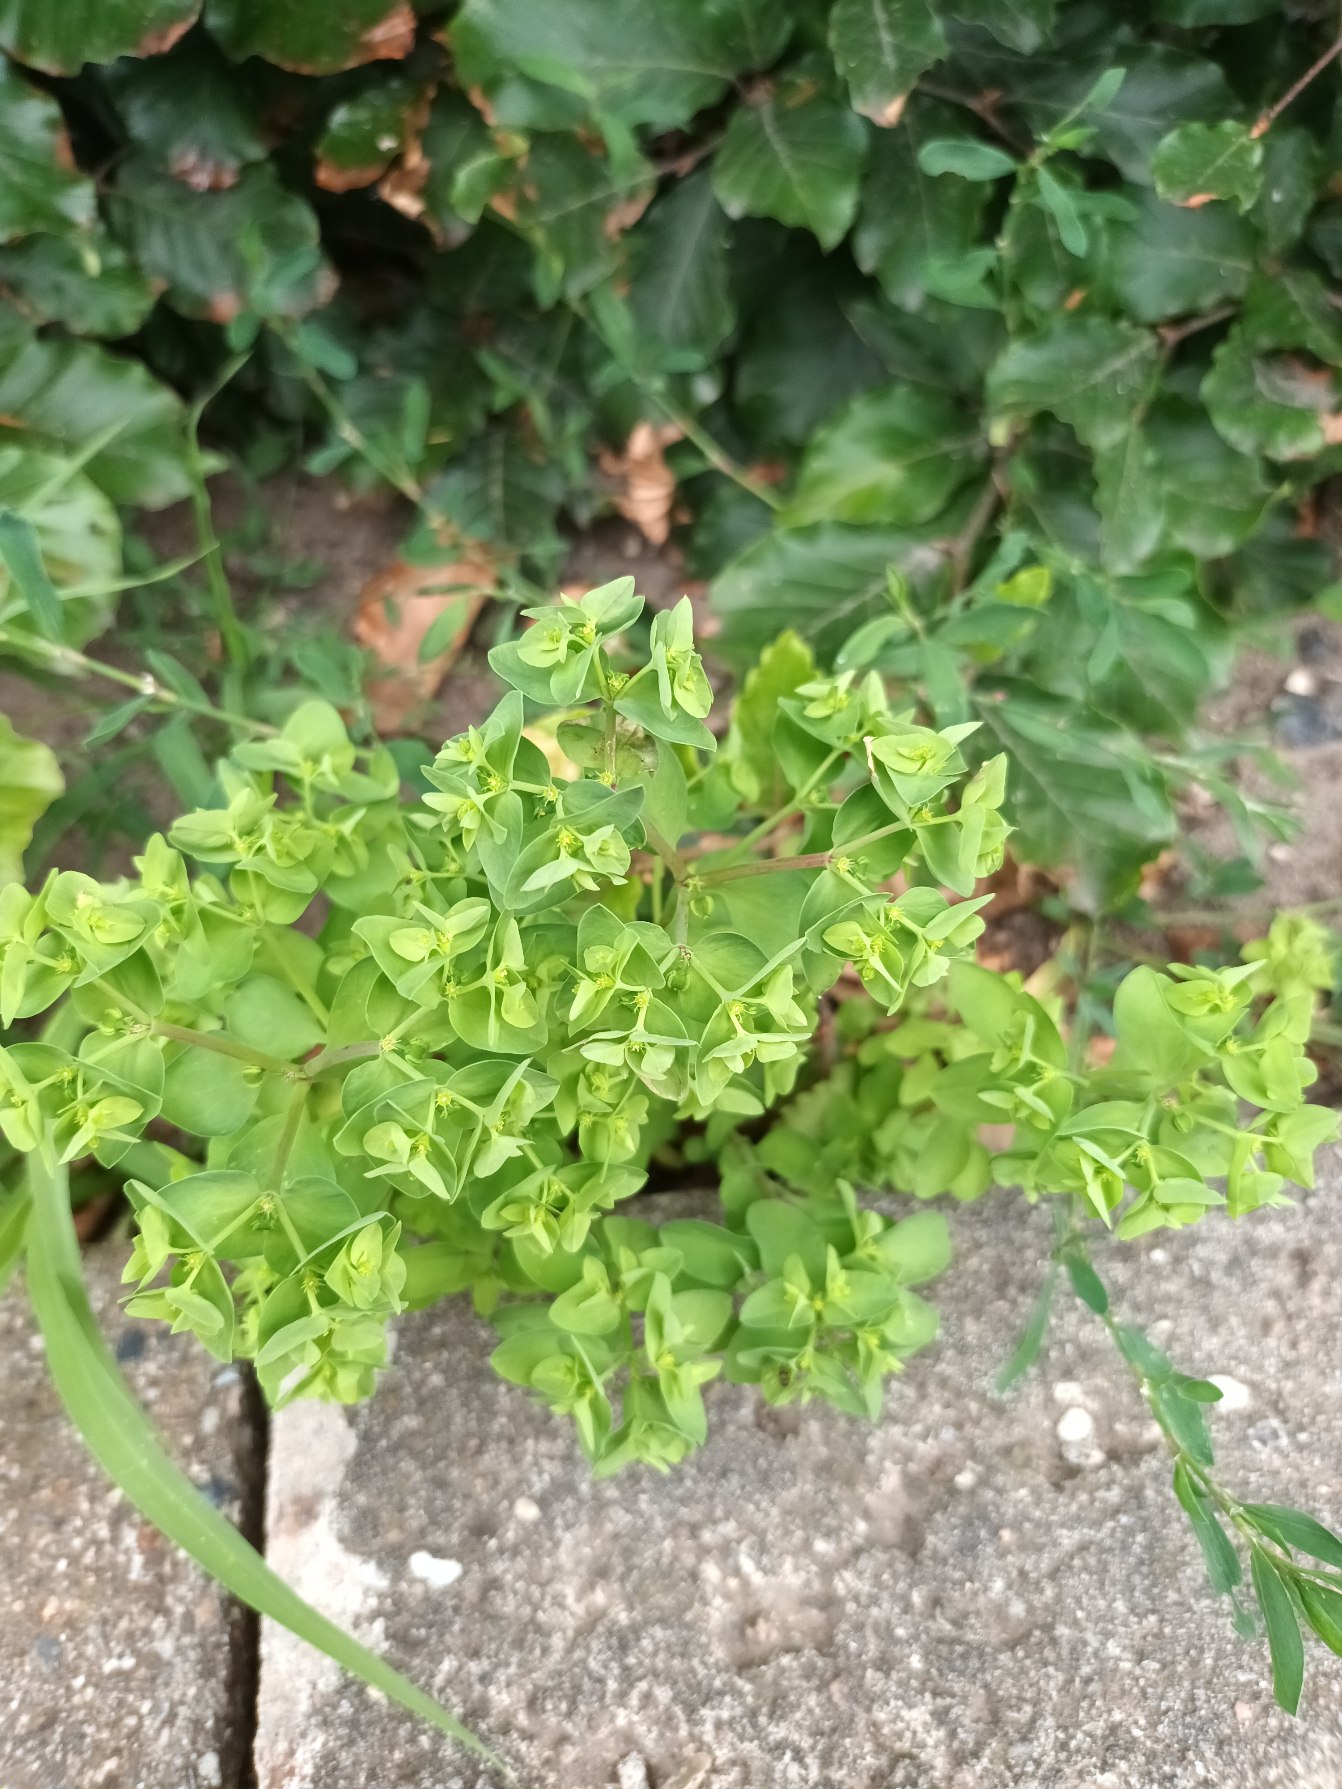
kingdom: Plantae
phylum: Tracheophyta
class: Magnoliopsida
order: Malpighiales
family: Euphorbiaceae
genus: Euphorbia
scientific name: Euphorbia peplus
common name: Gaffel-vortemælk
